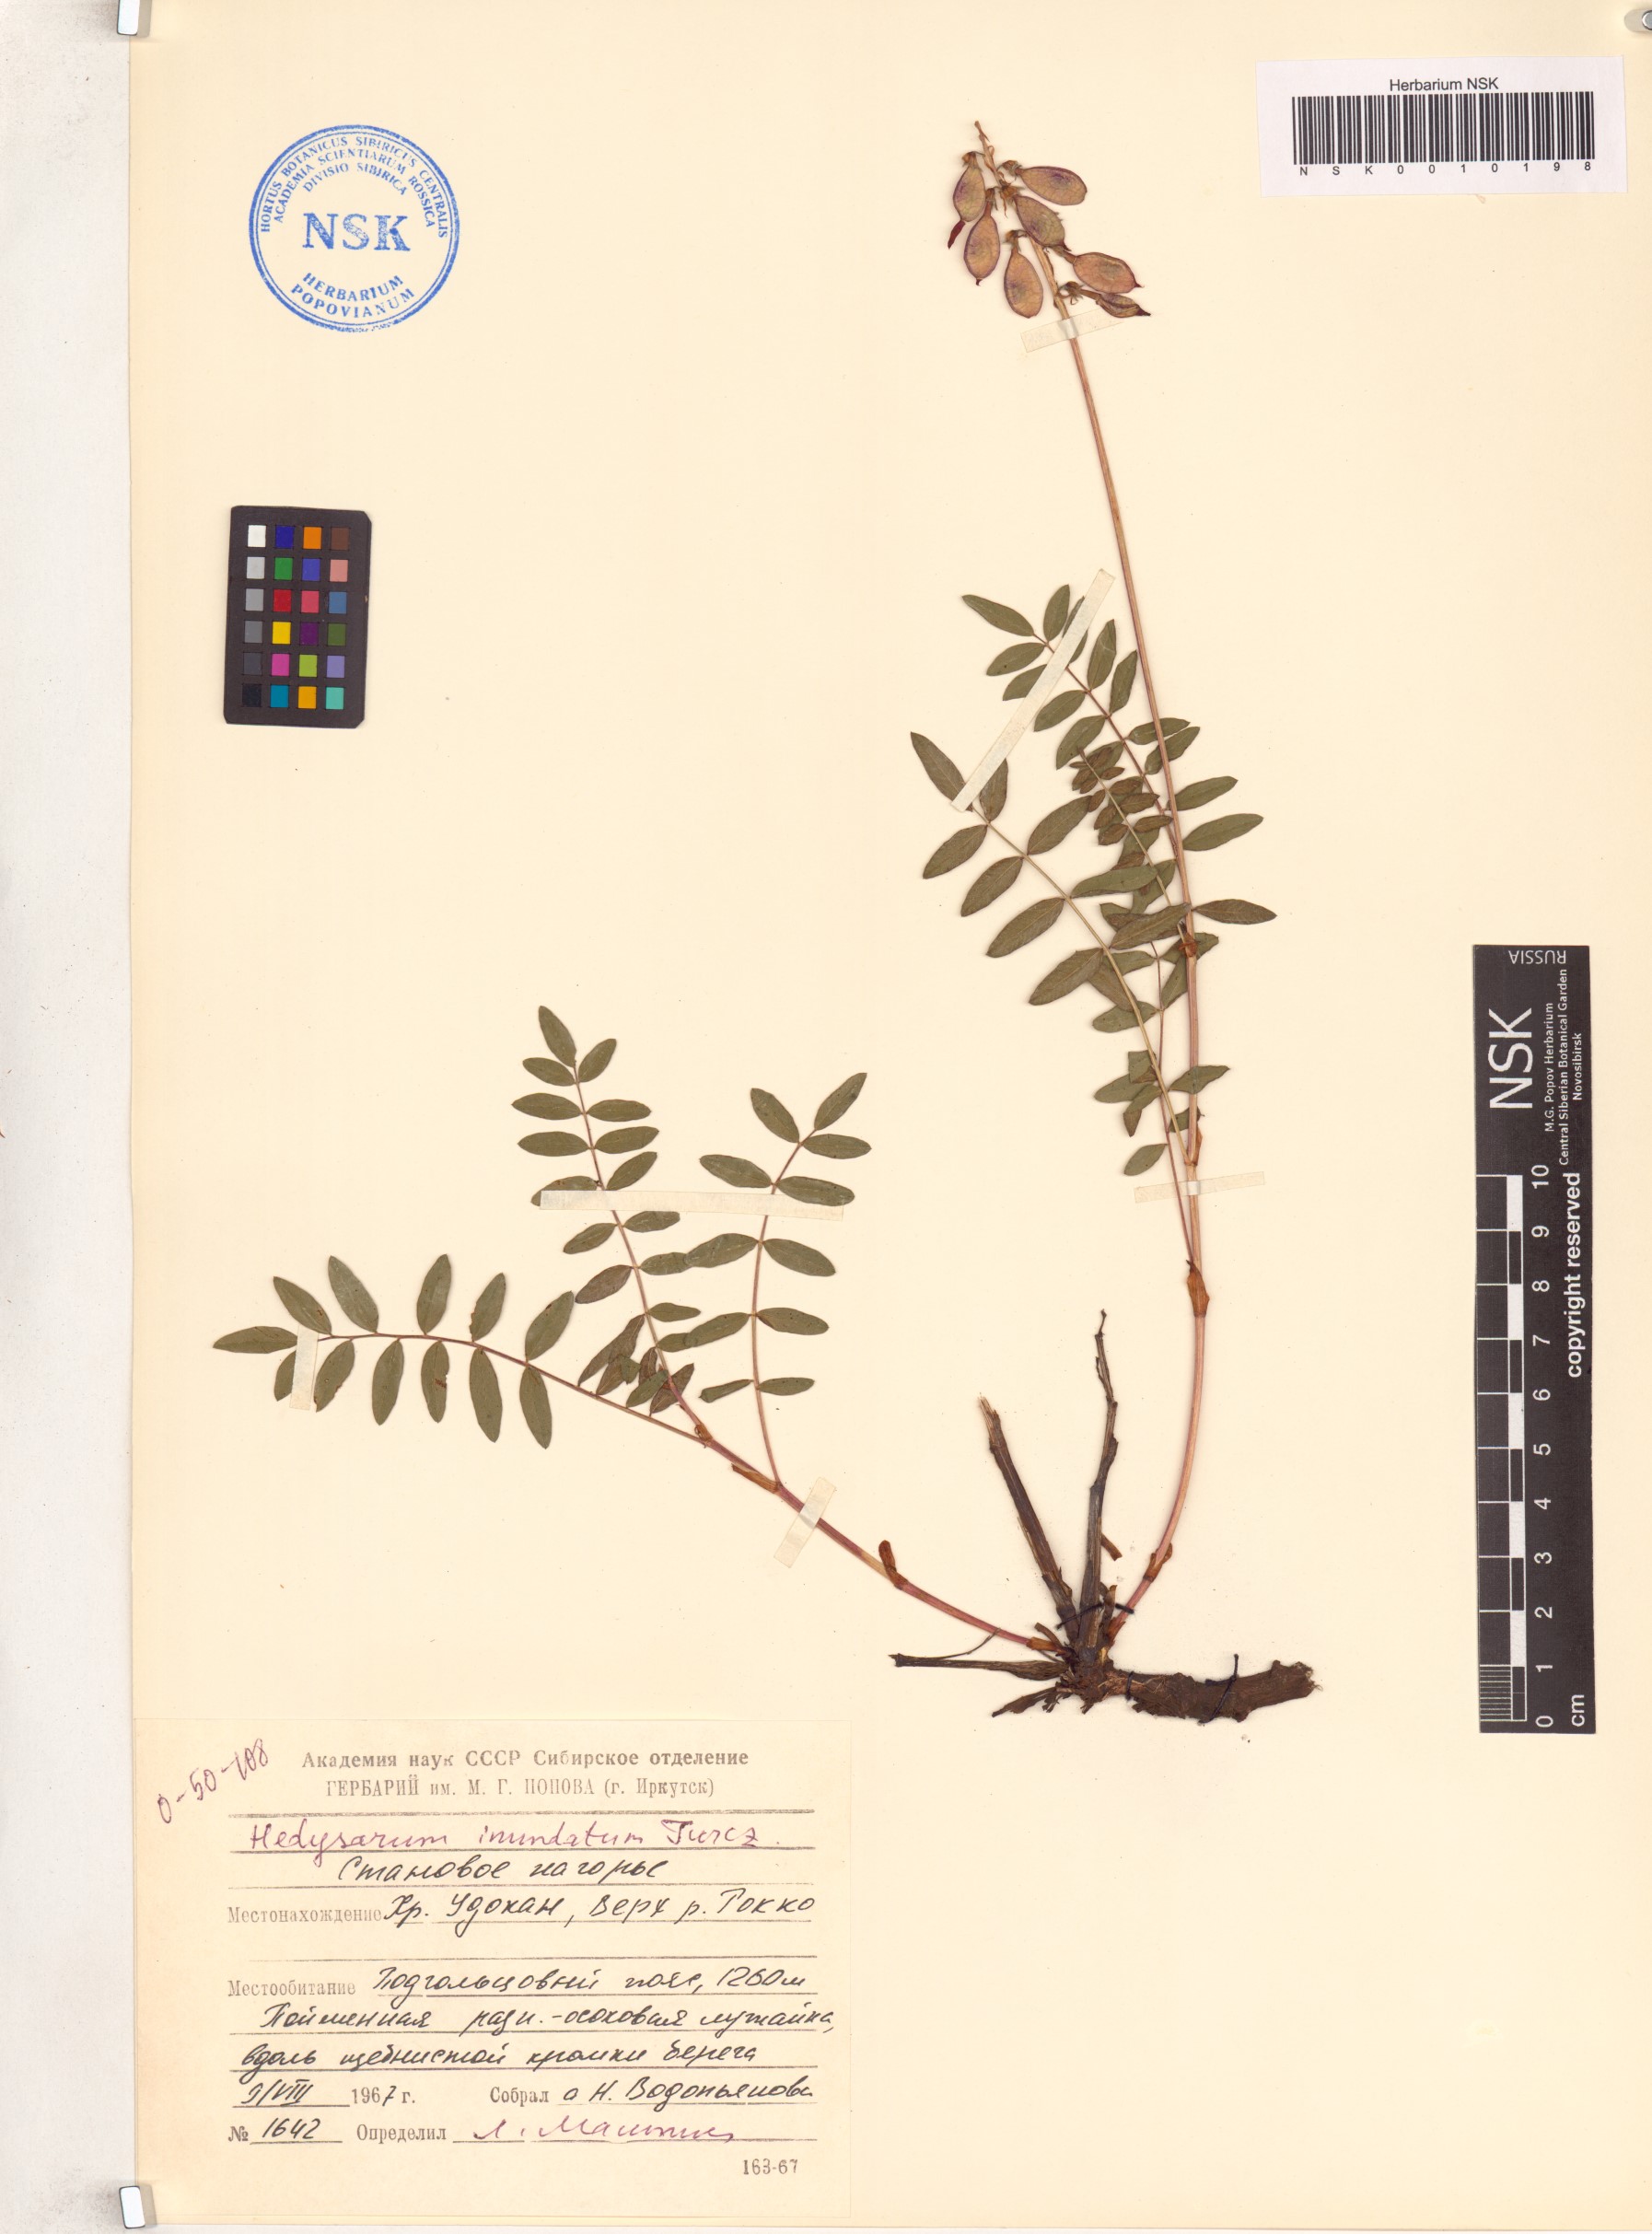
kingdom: Plantae
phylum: Tracheophyta
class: Magnoliopsida
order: Fabales
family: Fabaceae
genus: Hedysarum
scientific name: Hedysarum inundatum
